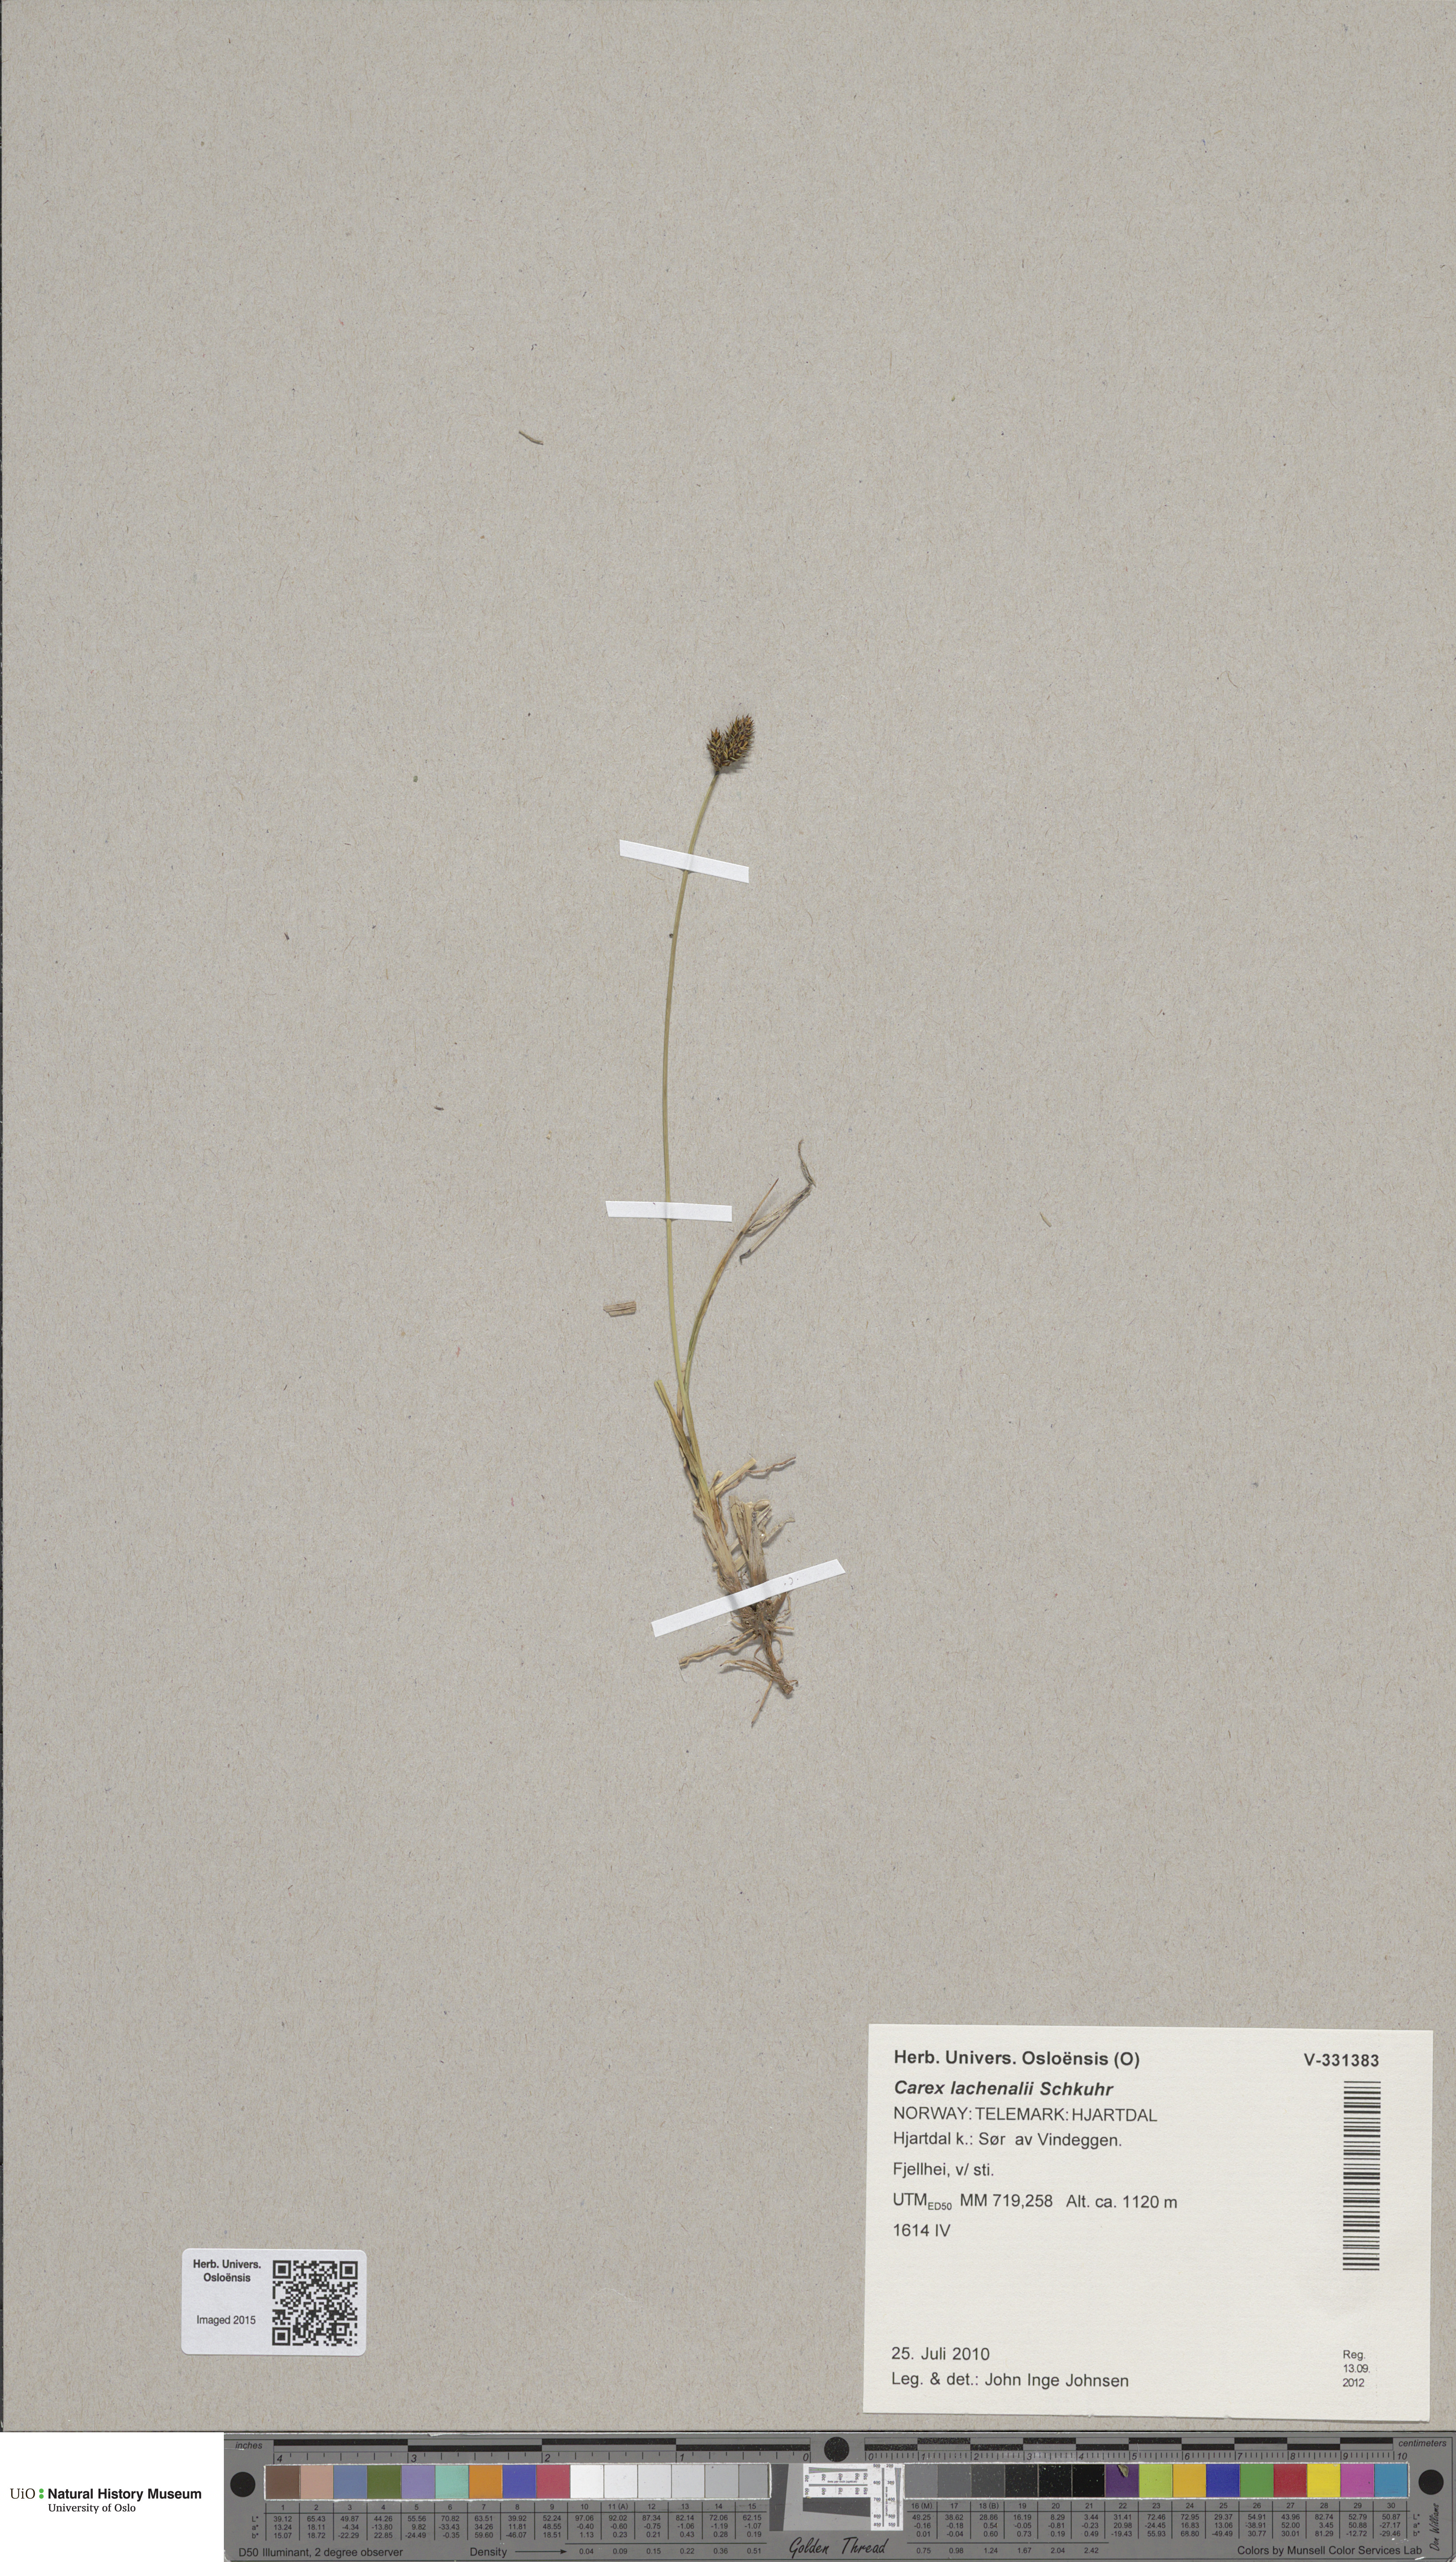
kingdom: Plantae
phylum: Tracheophyta
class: Liliopsida
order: Poales
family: Cyperaceae
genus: Carex
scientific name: Carex lachenalii
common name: Hare's-foot sedge
